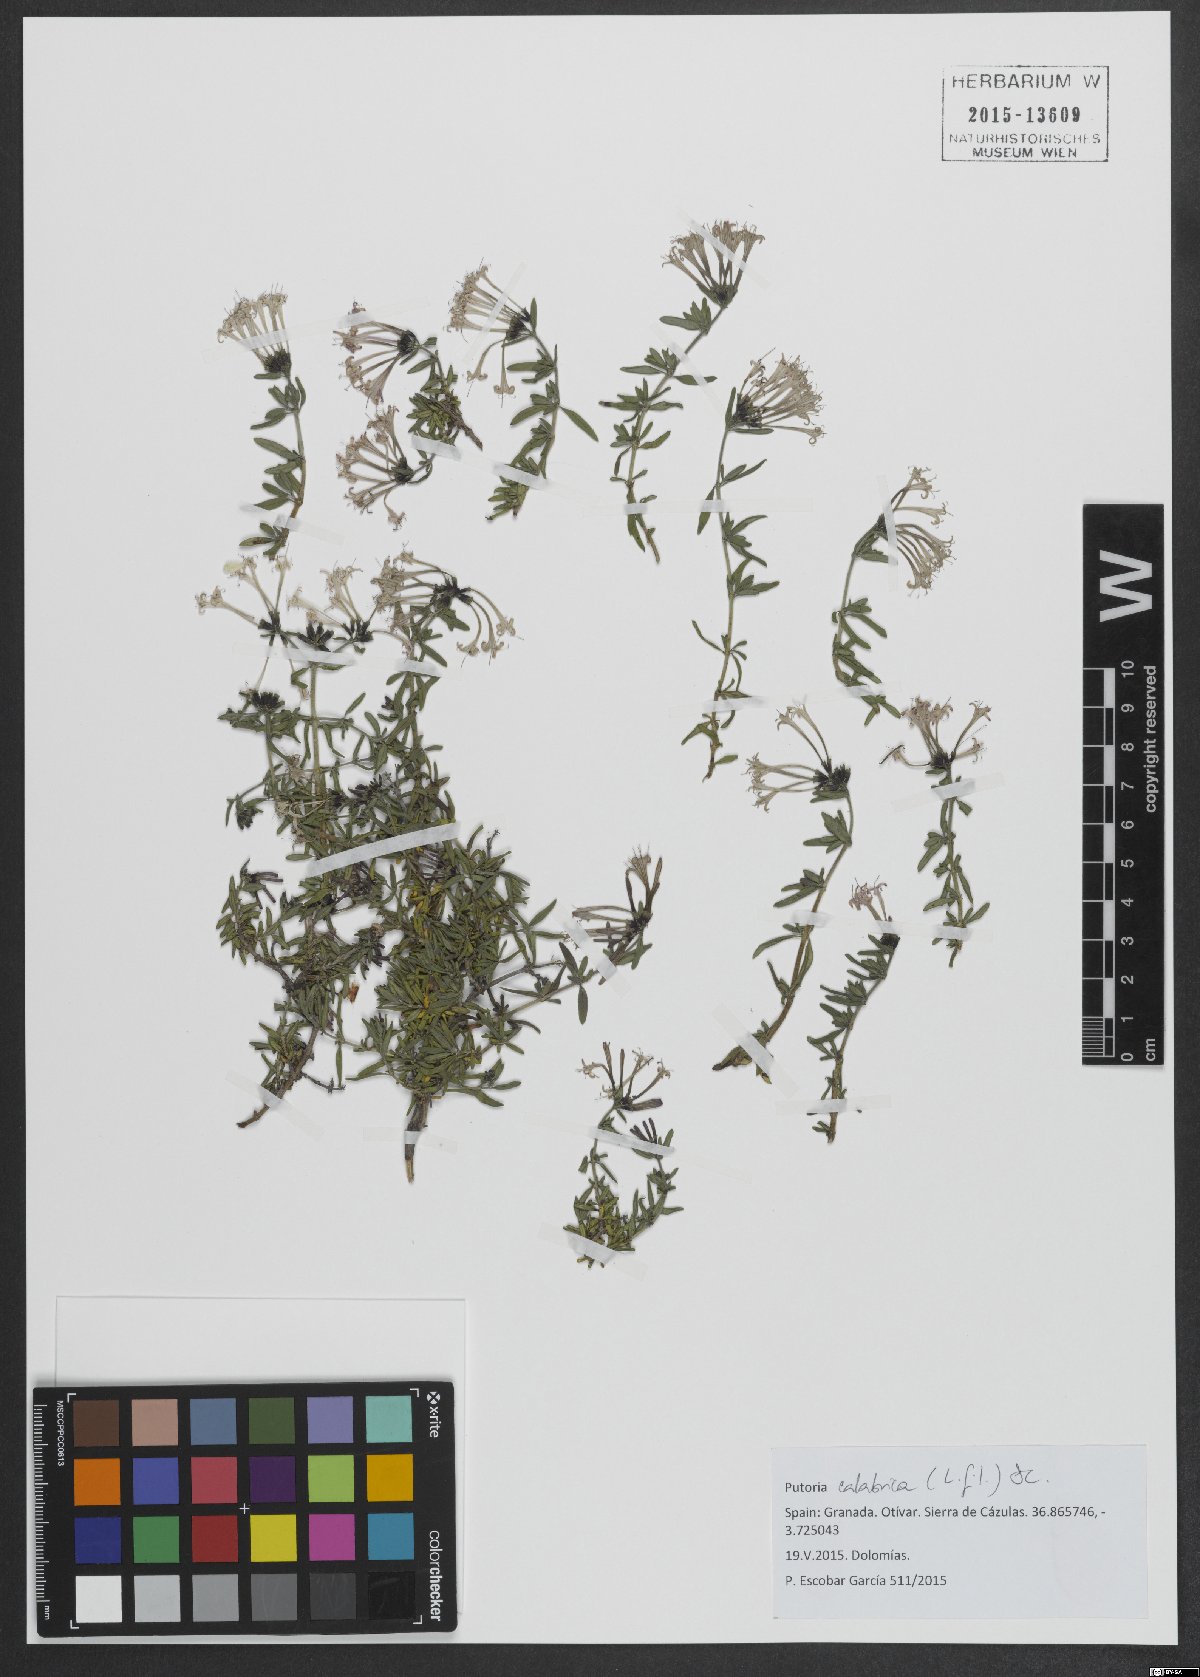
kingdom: Plantae
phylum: Tracheophyta
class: Magnoliopsida
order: Gentianales
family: Rubiaceae
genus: Plocama
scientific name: Plocama calabrica
